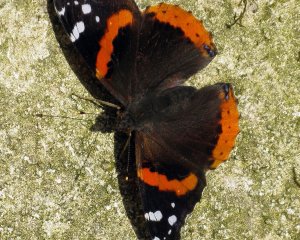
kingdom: Animalia
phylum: Arthropoda
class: Insecta
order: Lepidoptera
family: Nymphalidae
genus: Vanessa
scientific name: Vanessa atalanta
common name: Red Admiral
